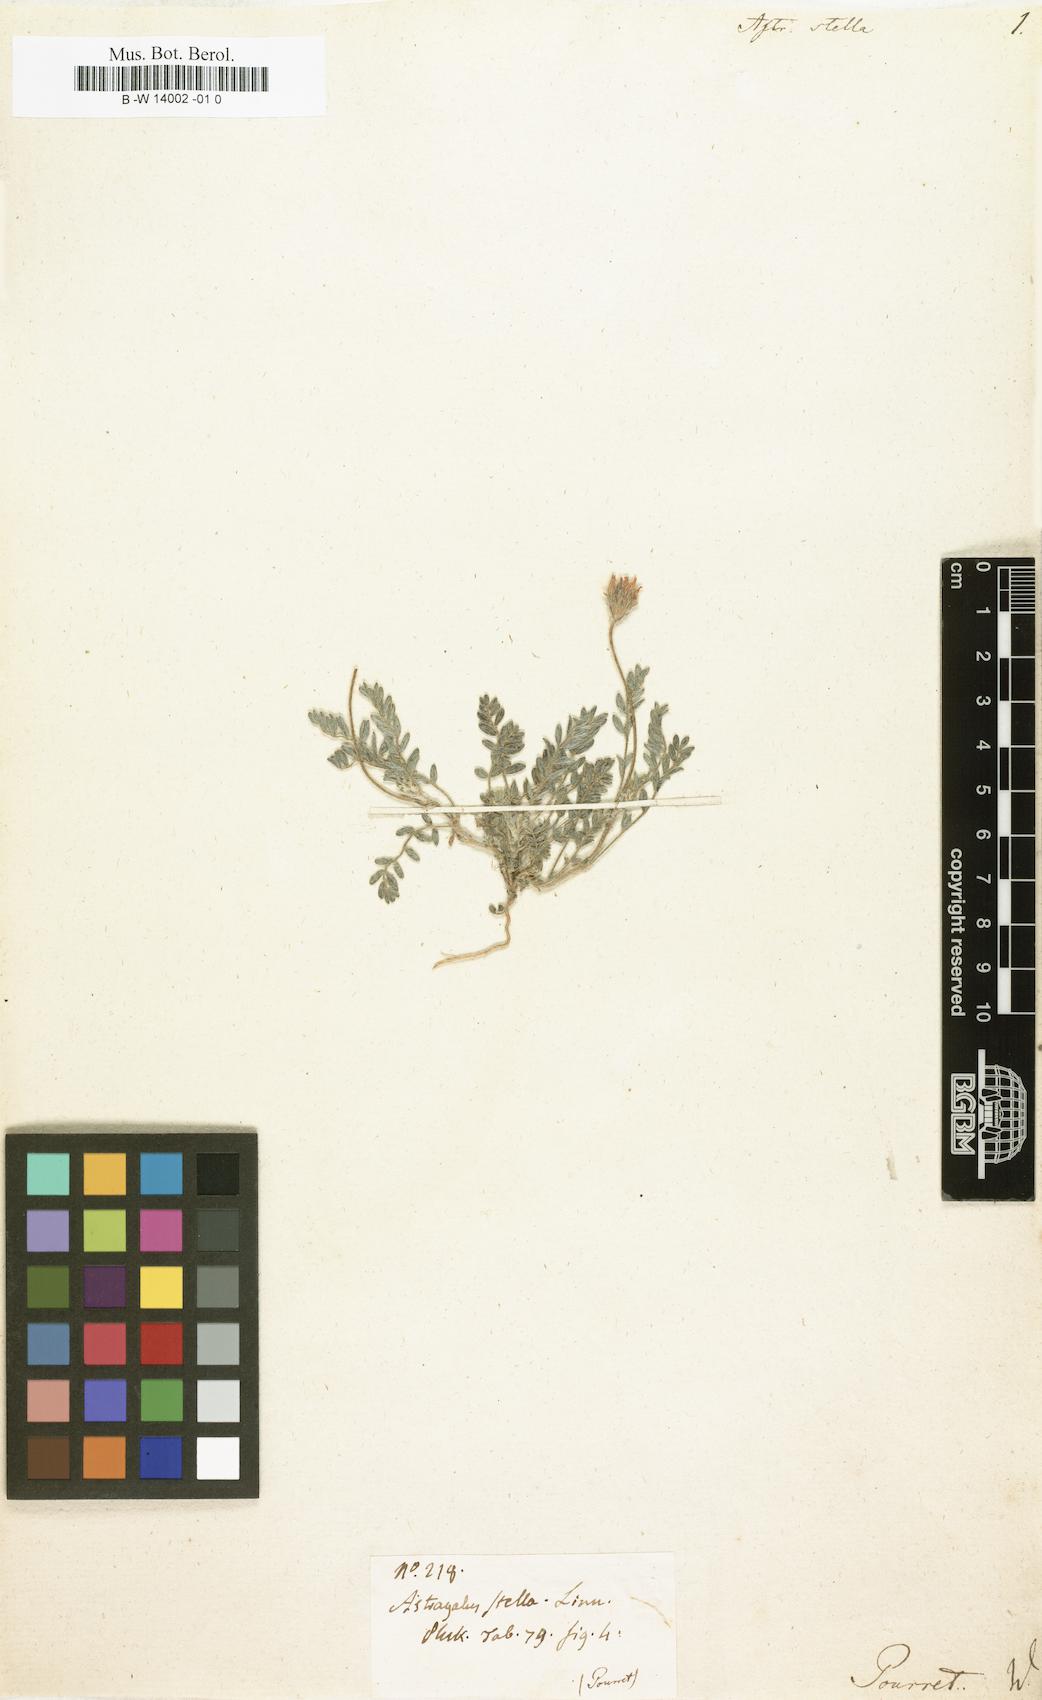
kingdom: Plantae
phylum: Tracheophyta
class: Magnoliopsida
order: Fabales
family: Fabaceae
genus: Astragalus
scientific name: Astragalus stella
